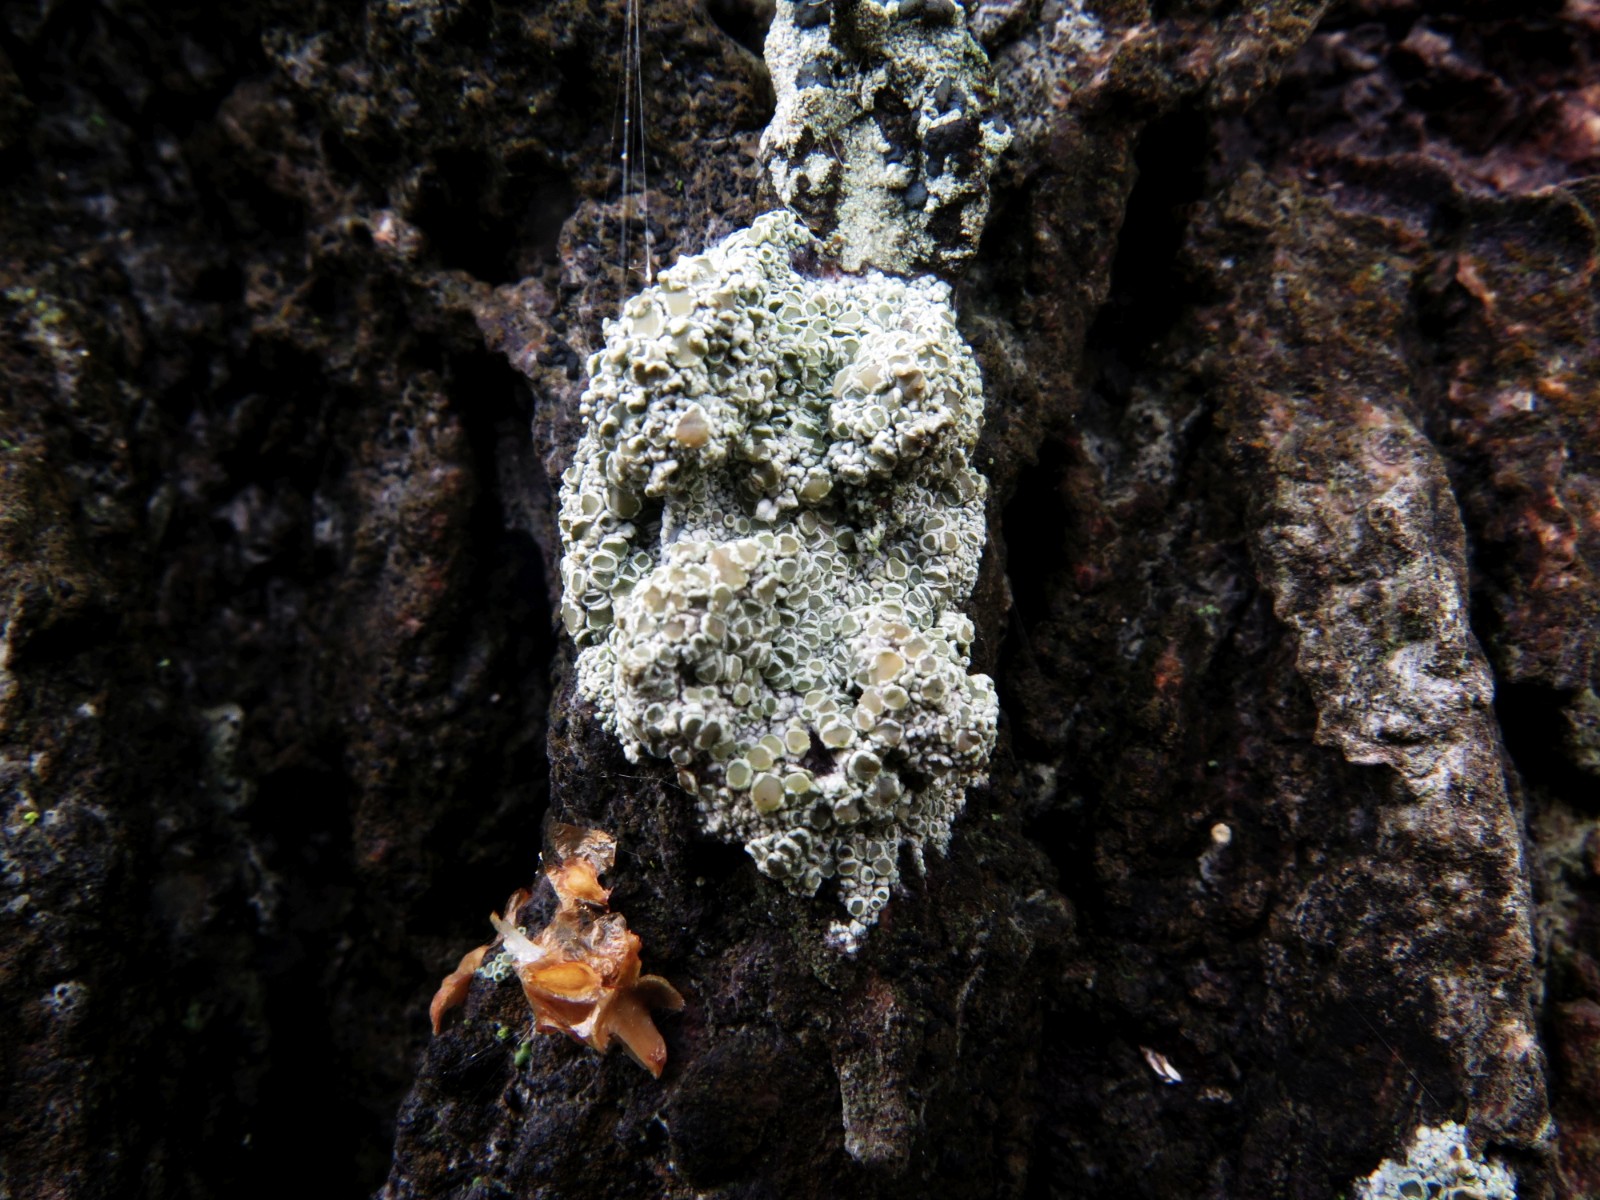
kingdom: Fungi
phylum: Ascomycota
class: Lecanoromycetes
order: Lecanorales
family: Lecanoraceae
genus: Lecanora
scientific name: Lecanora chlarotera
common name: brun kantskivelav
